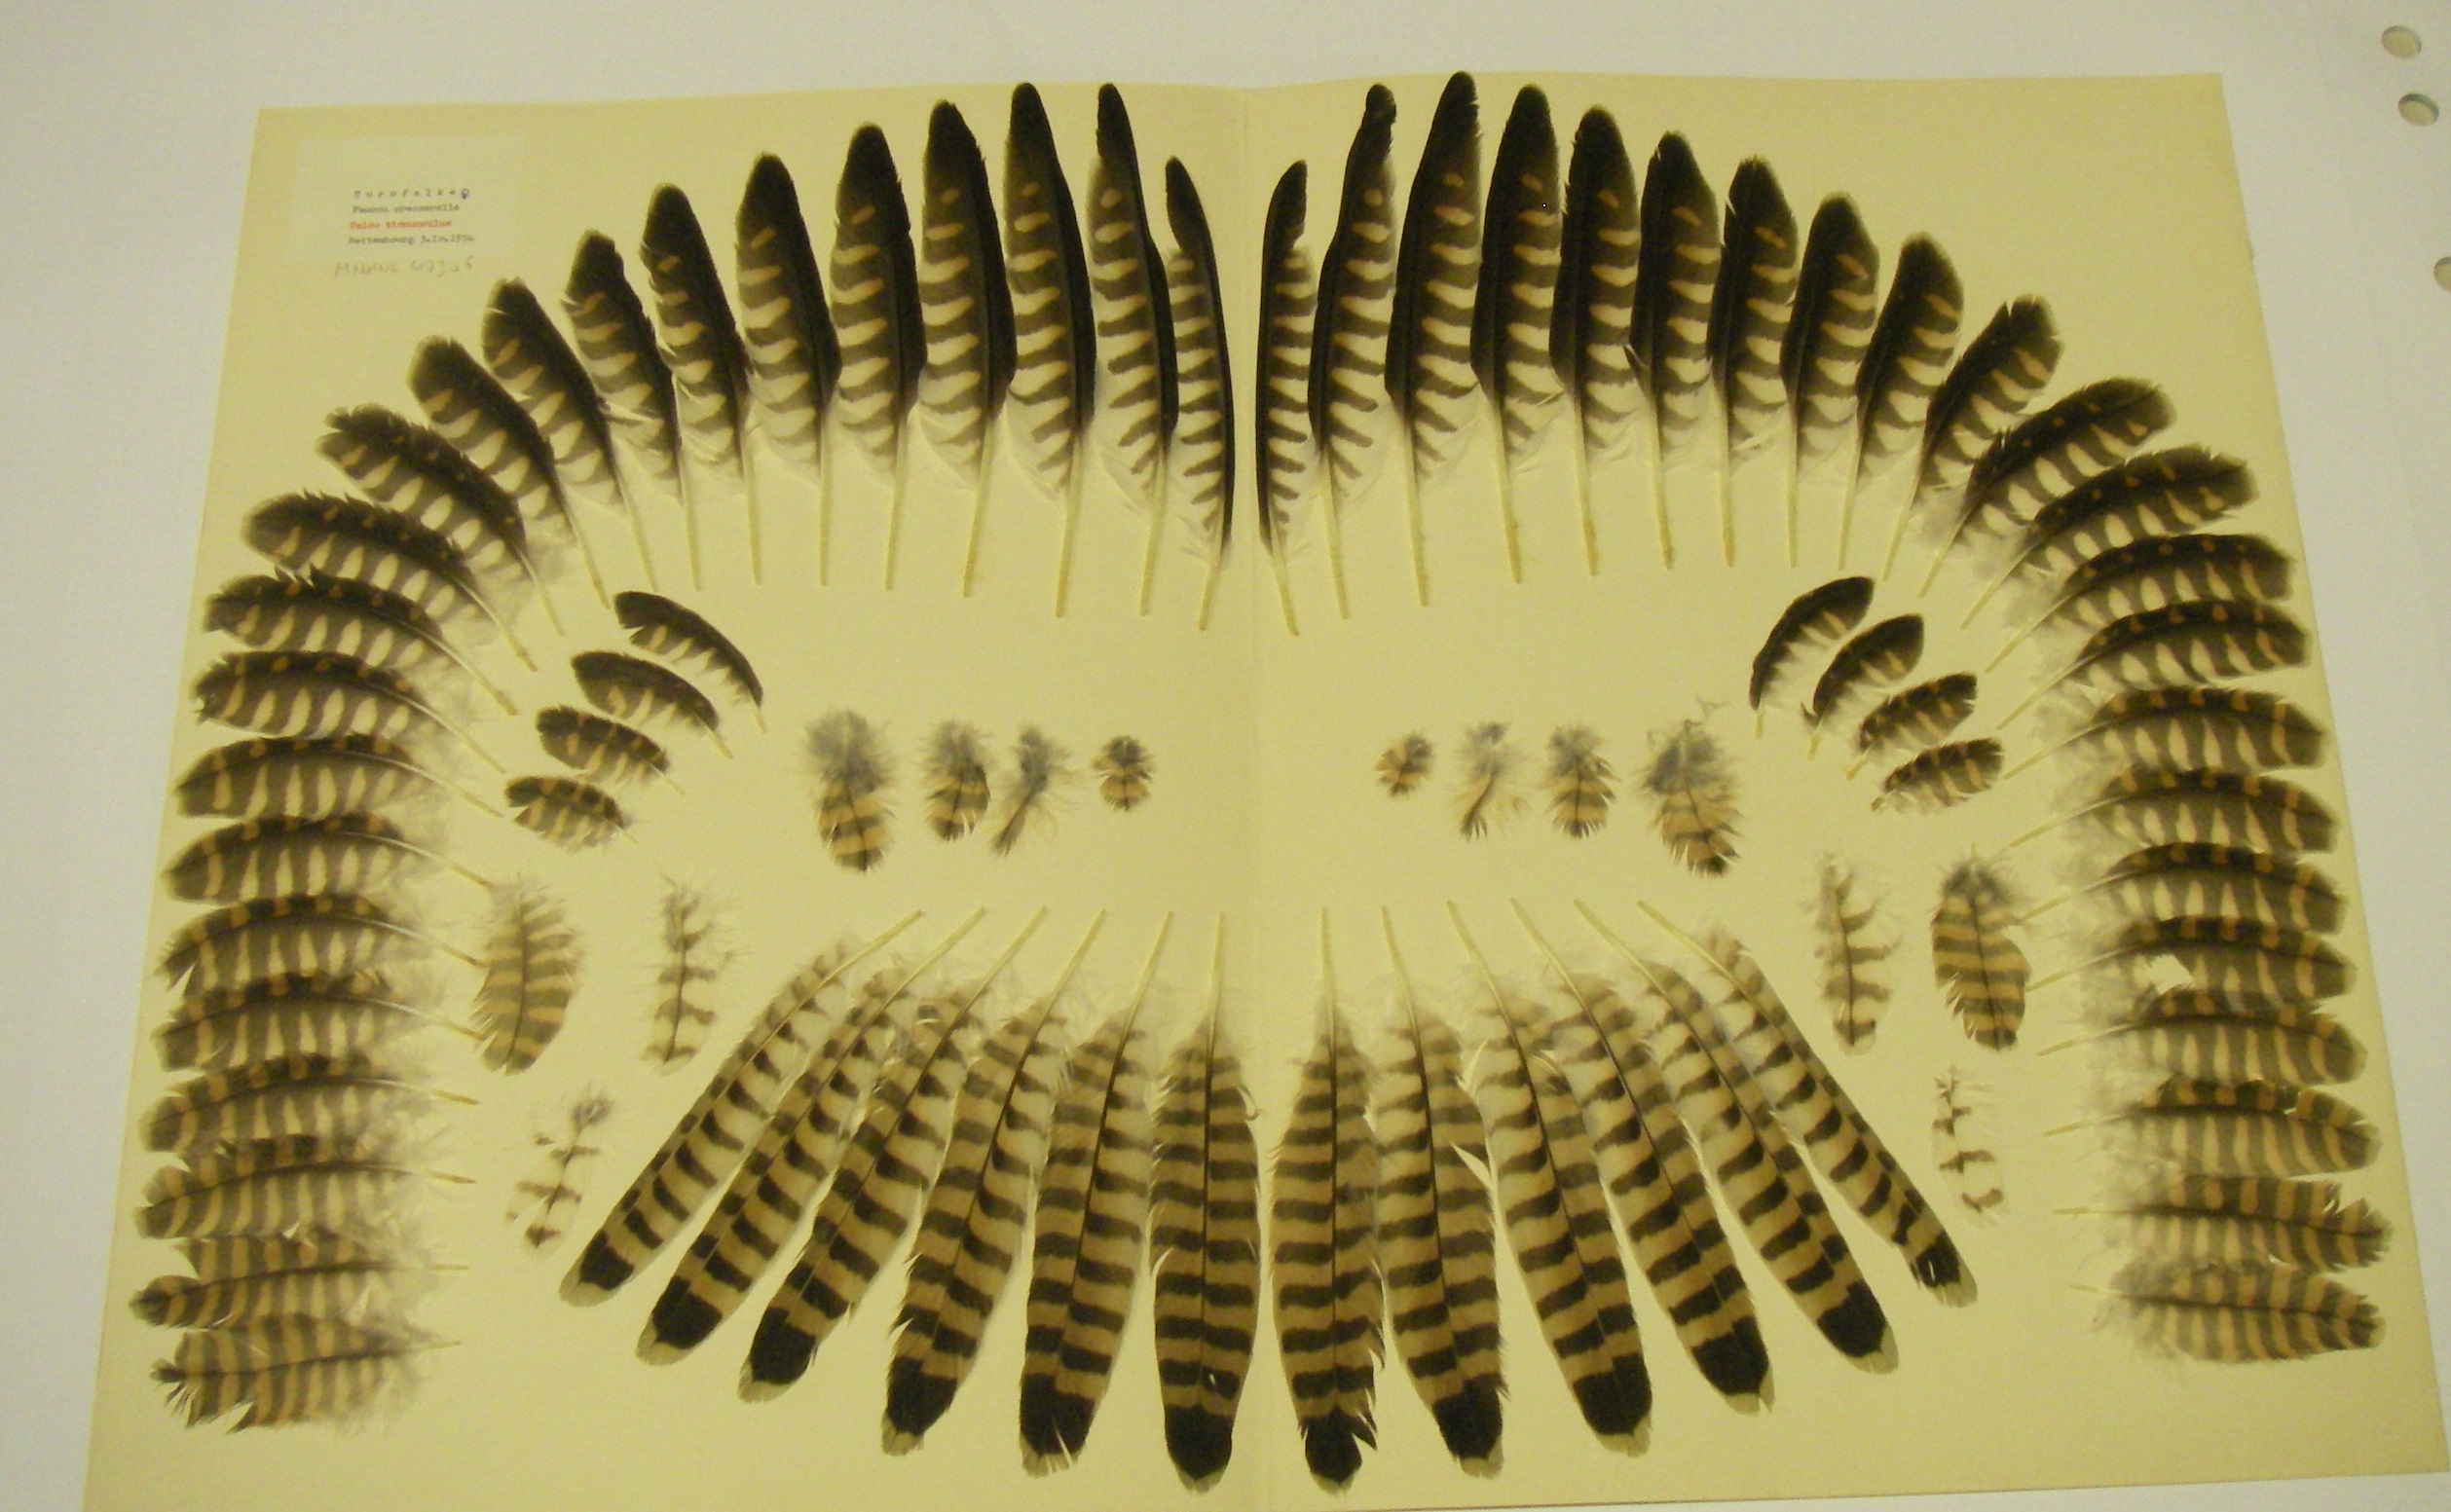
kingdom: Animalia
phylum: Chordata
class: Aves
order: Falconiformes
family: Falconidae
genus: Falco
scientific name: Falco tinnunculus
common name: Common kestrel
